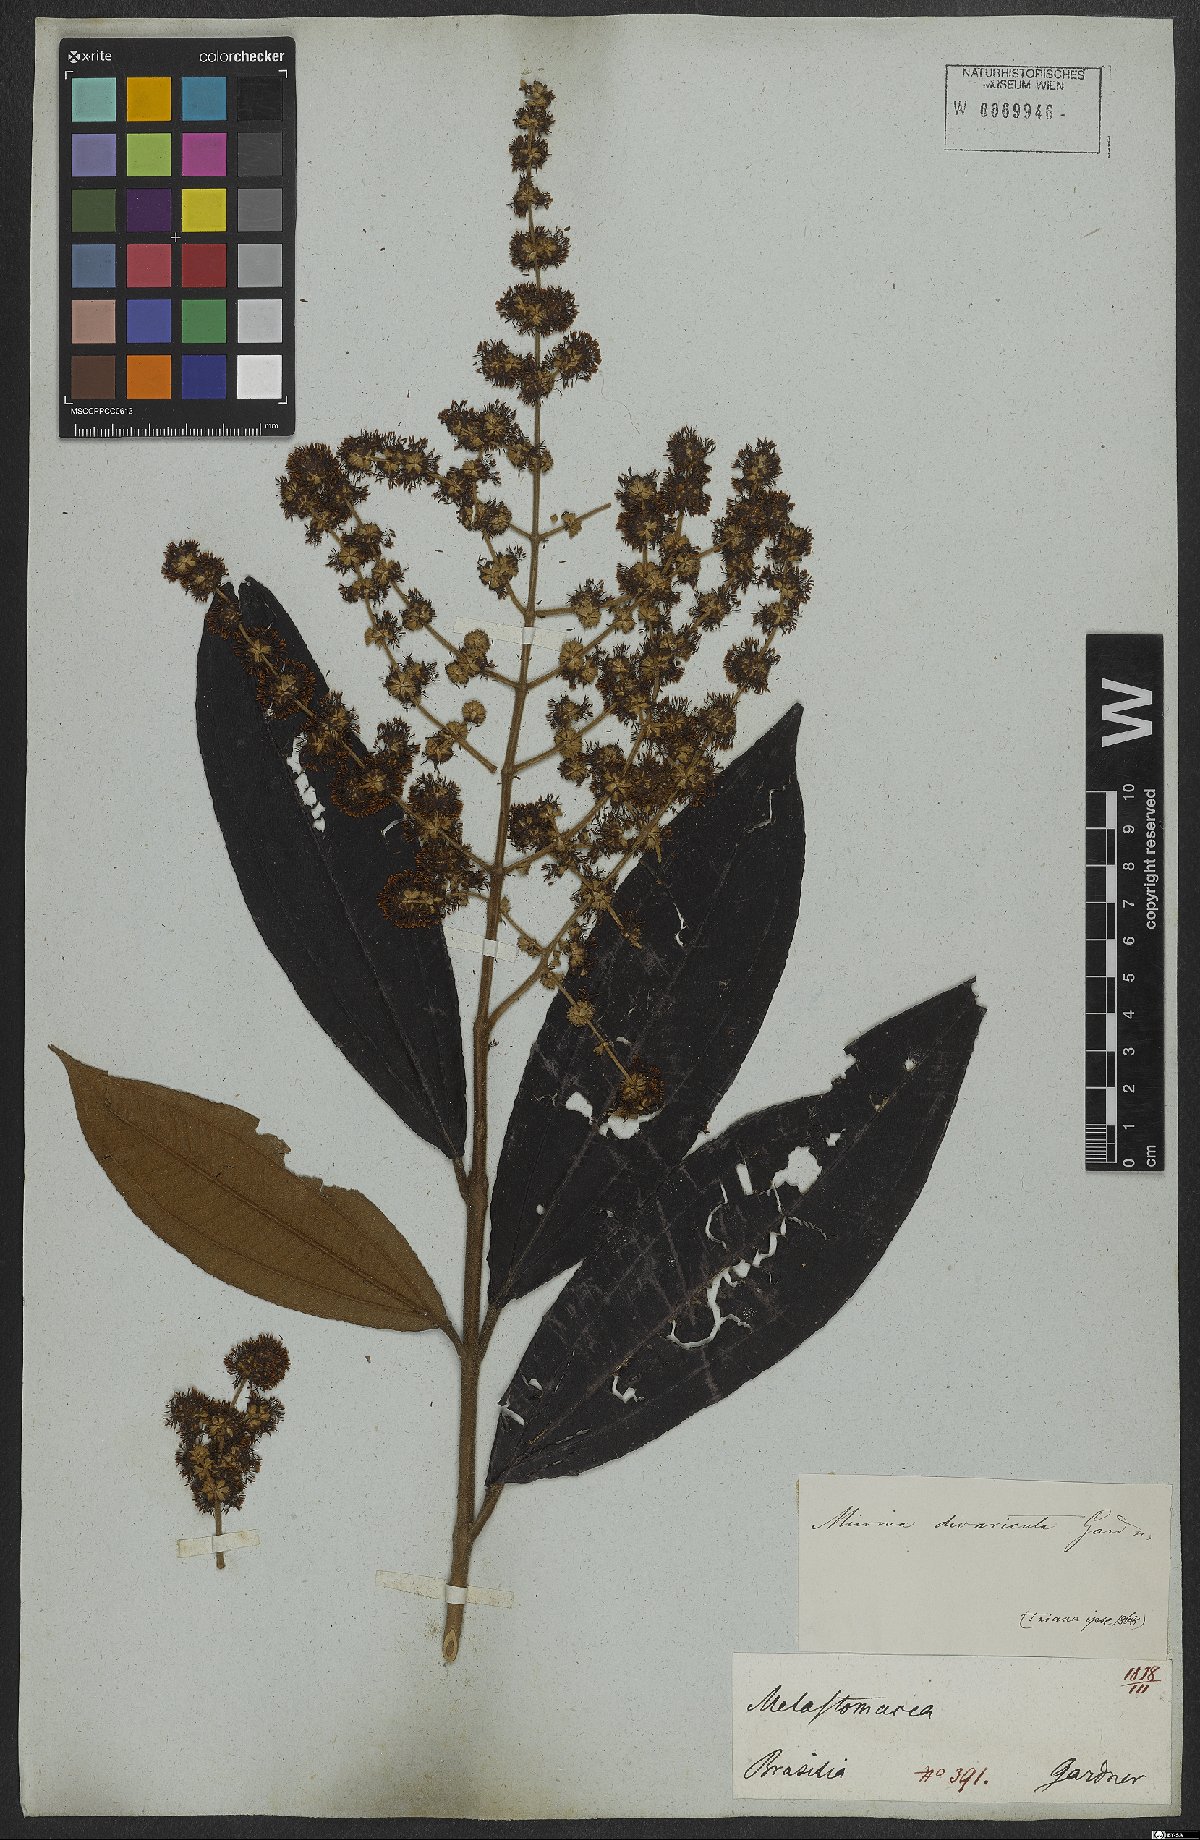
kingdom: Plantae
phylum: Tracheophyta
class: Magnoliopsida
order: Myrtales
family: Melastomataceae
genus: Miconia
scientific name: Miconia fasciculata
